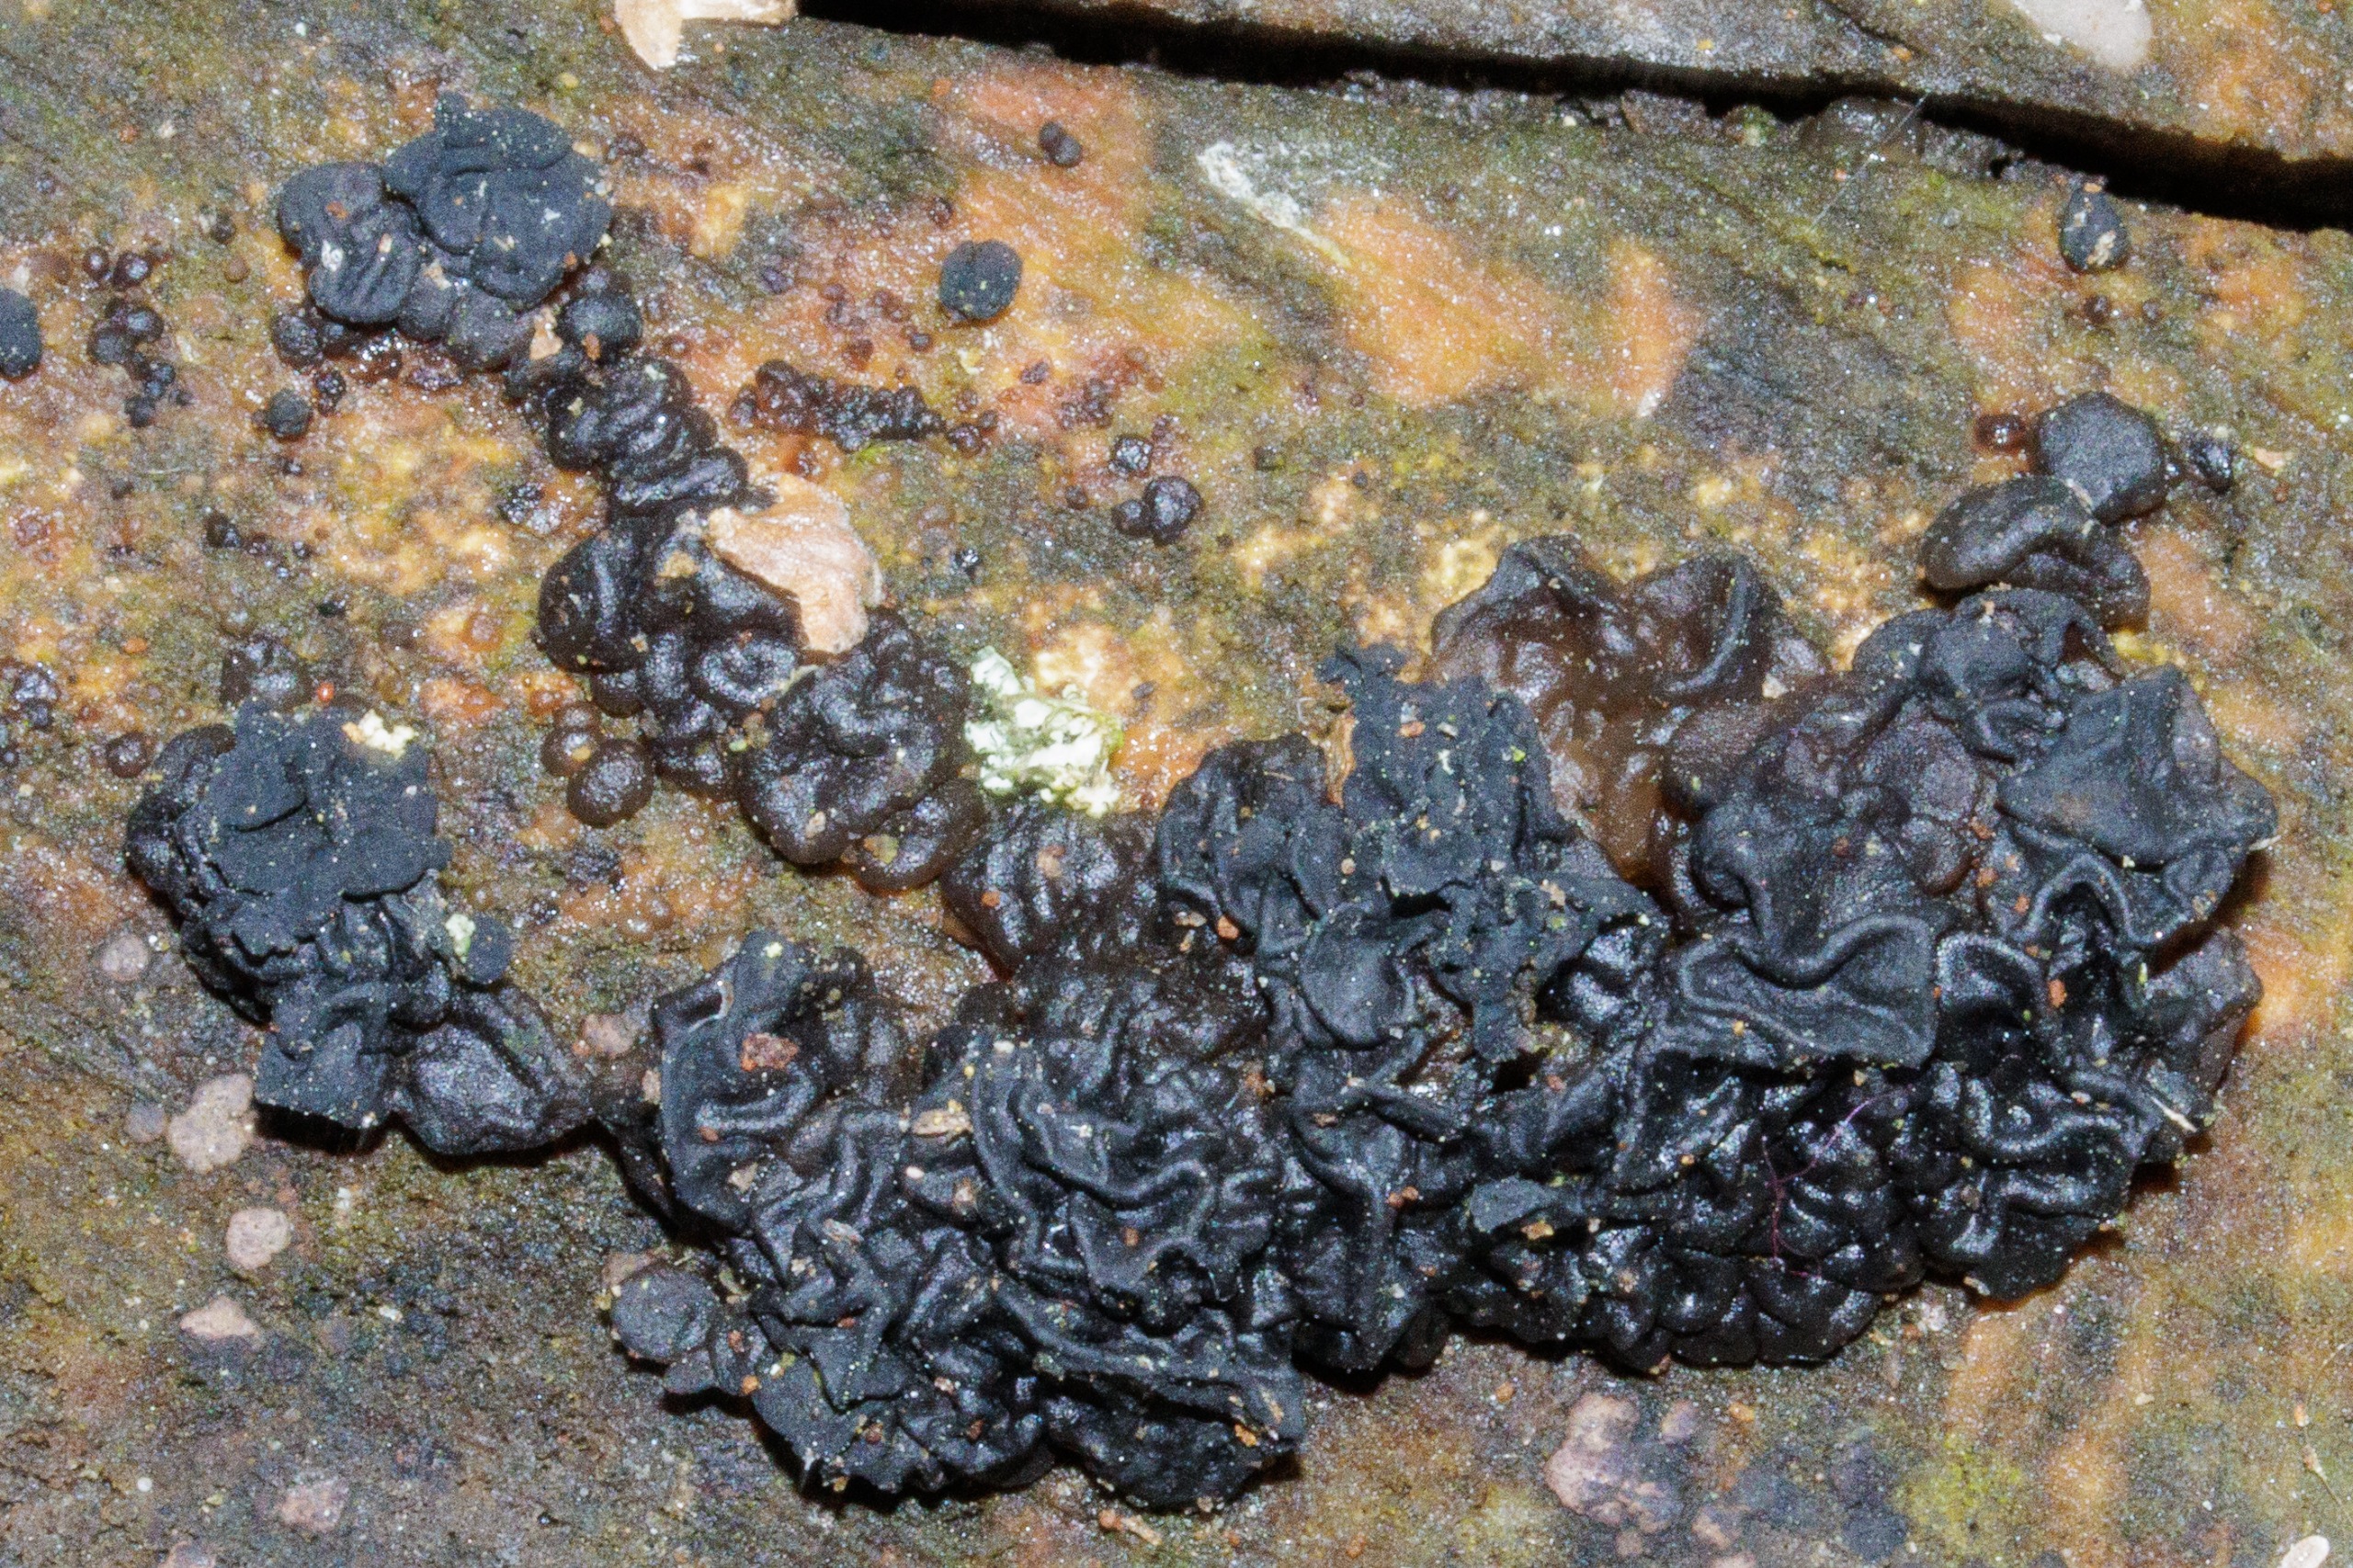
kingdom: Fungi
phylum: Basidiomycota
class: Agaricomycetes
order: Auriculariales
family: Auriculariaceae
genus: Exidia
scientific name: Exidia nigricans
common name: Almindelig bævretop
